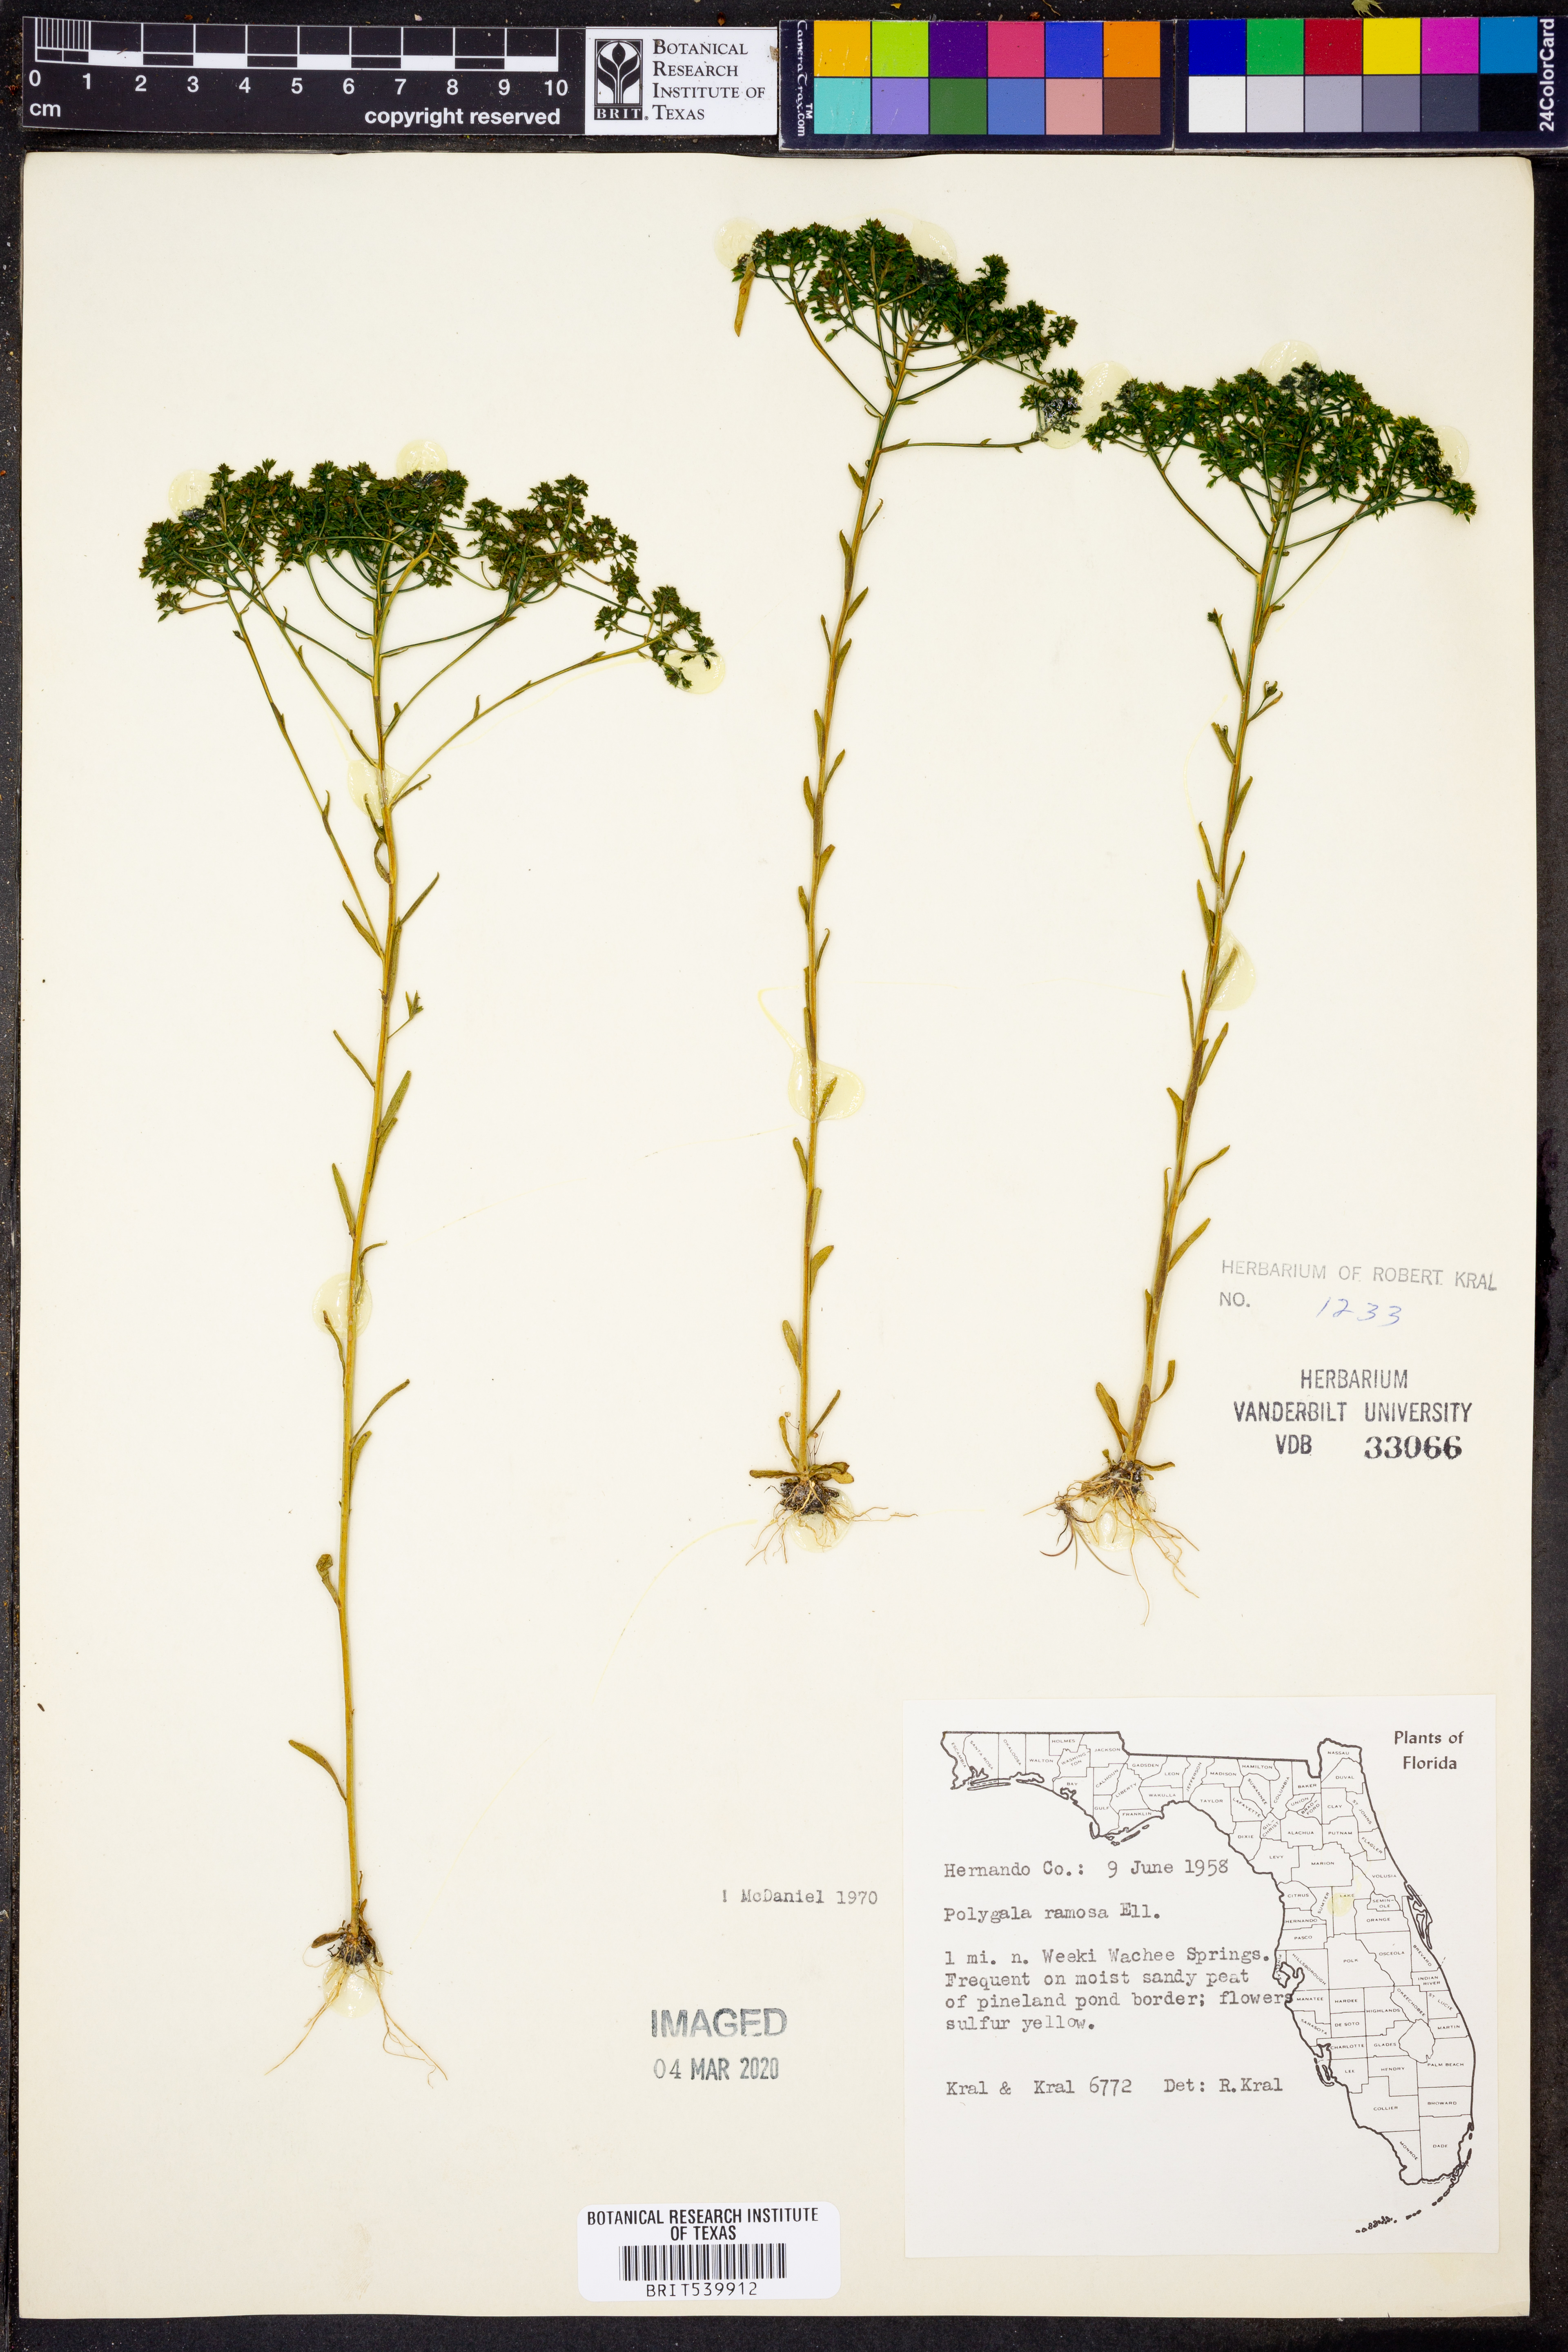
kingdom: Plantae
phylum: Tracheophyta
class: Magnoliopsida
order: Fabales
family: Polygalaceae
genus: Polygala
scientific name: Polygala ramosa
